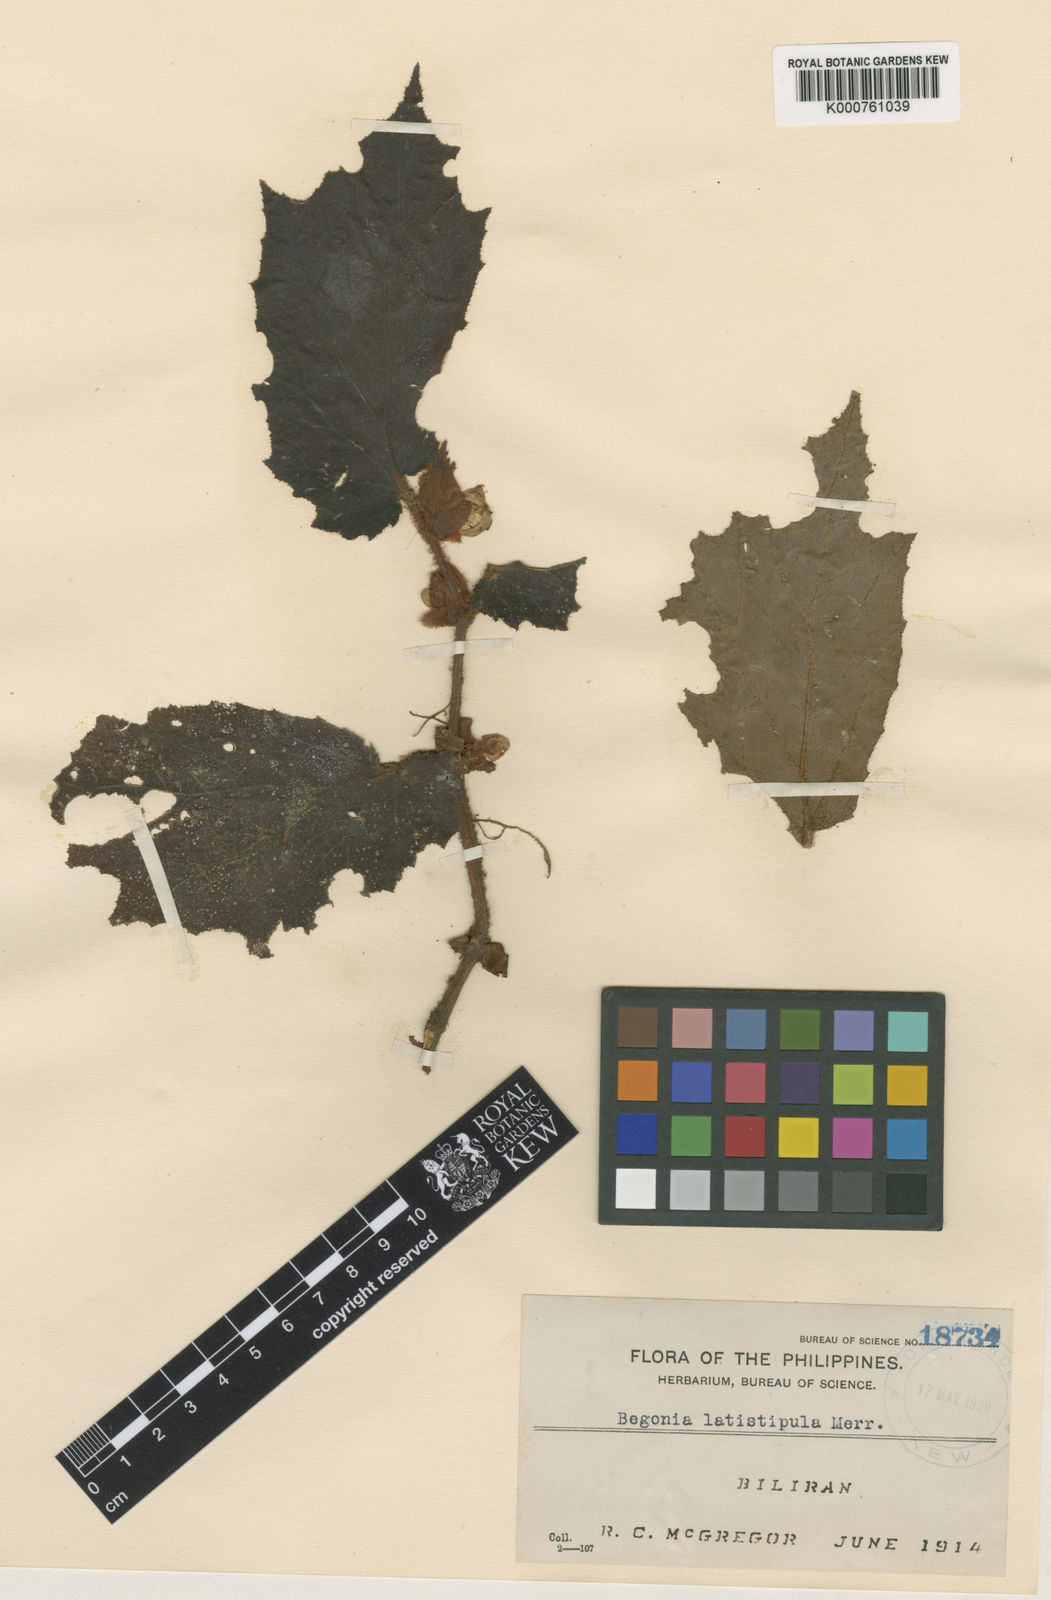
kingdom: Plantae
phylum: Tracheophyta
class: Magnoliopsida
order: Cucurbitales
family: Begoniaceae
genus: Begonia
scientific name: Begonia latistipula
